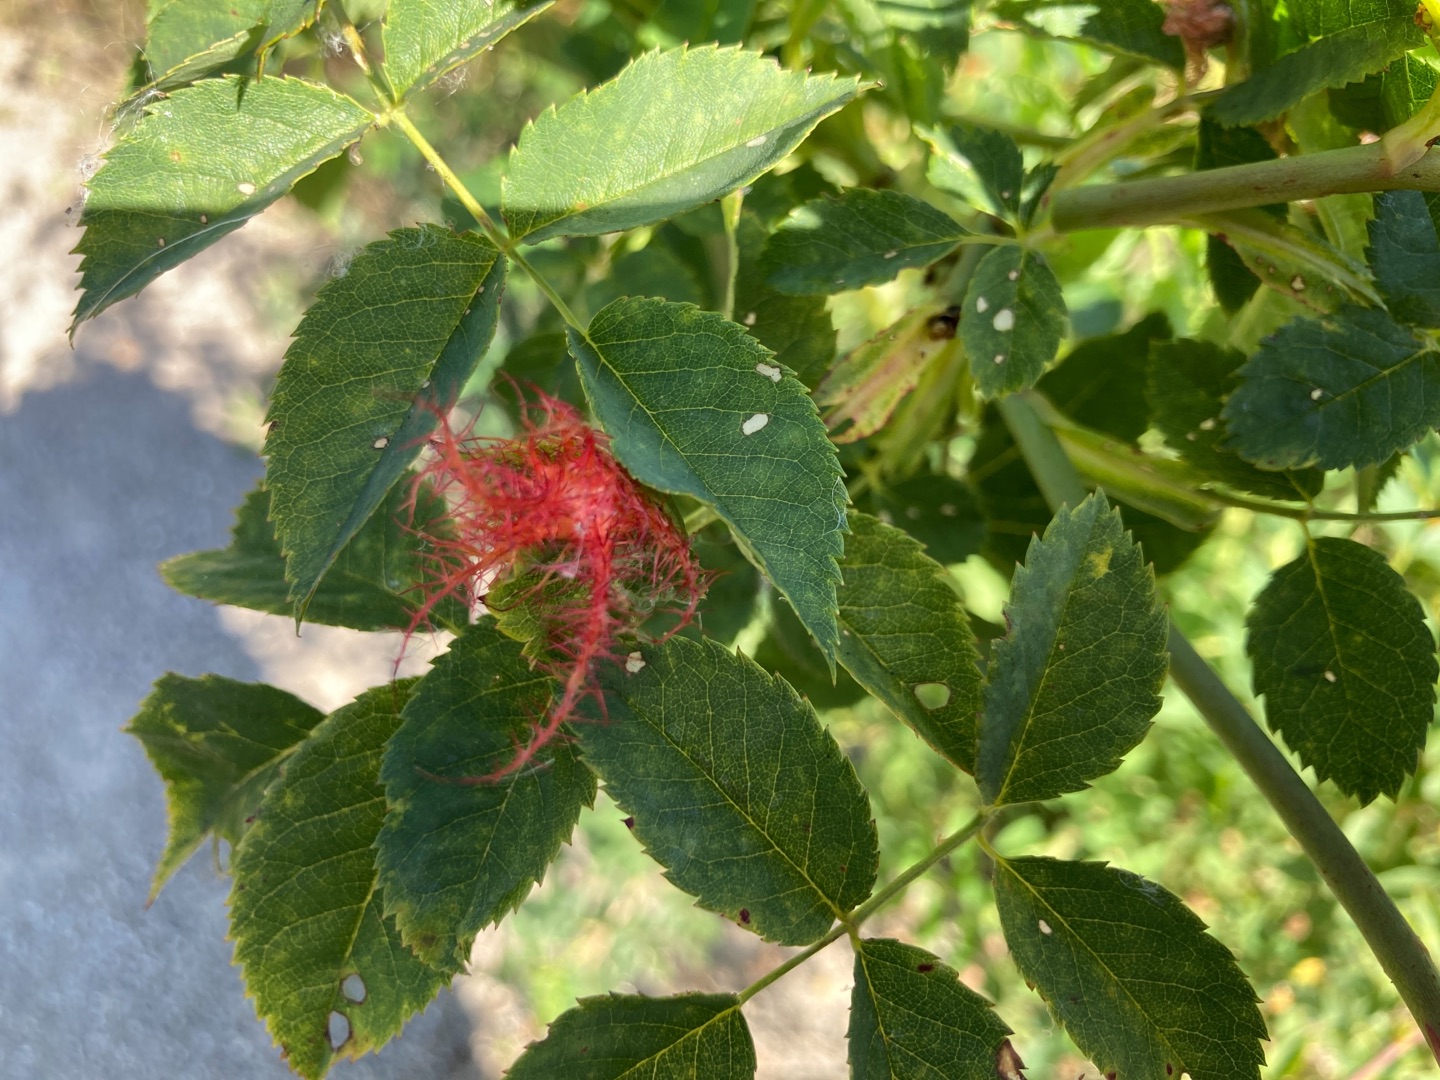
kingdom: Animalia
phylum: Arthropoda
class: Insecta
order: Hymenoptera
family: Cynipidae
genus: Diplolepis
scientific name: Diplolepis rosae
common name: Bedeguargalhveps
